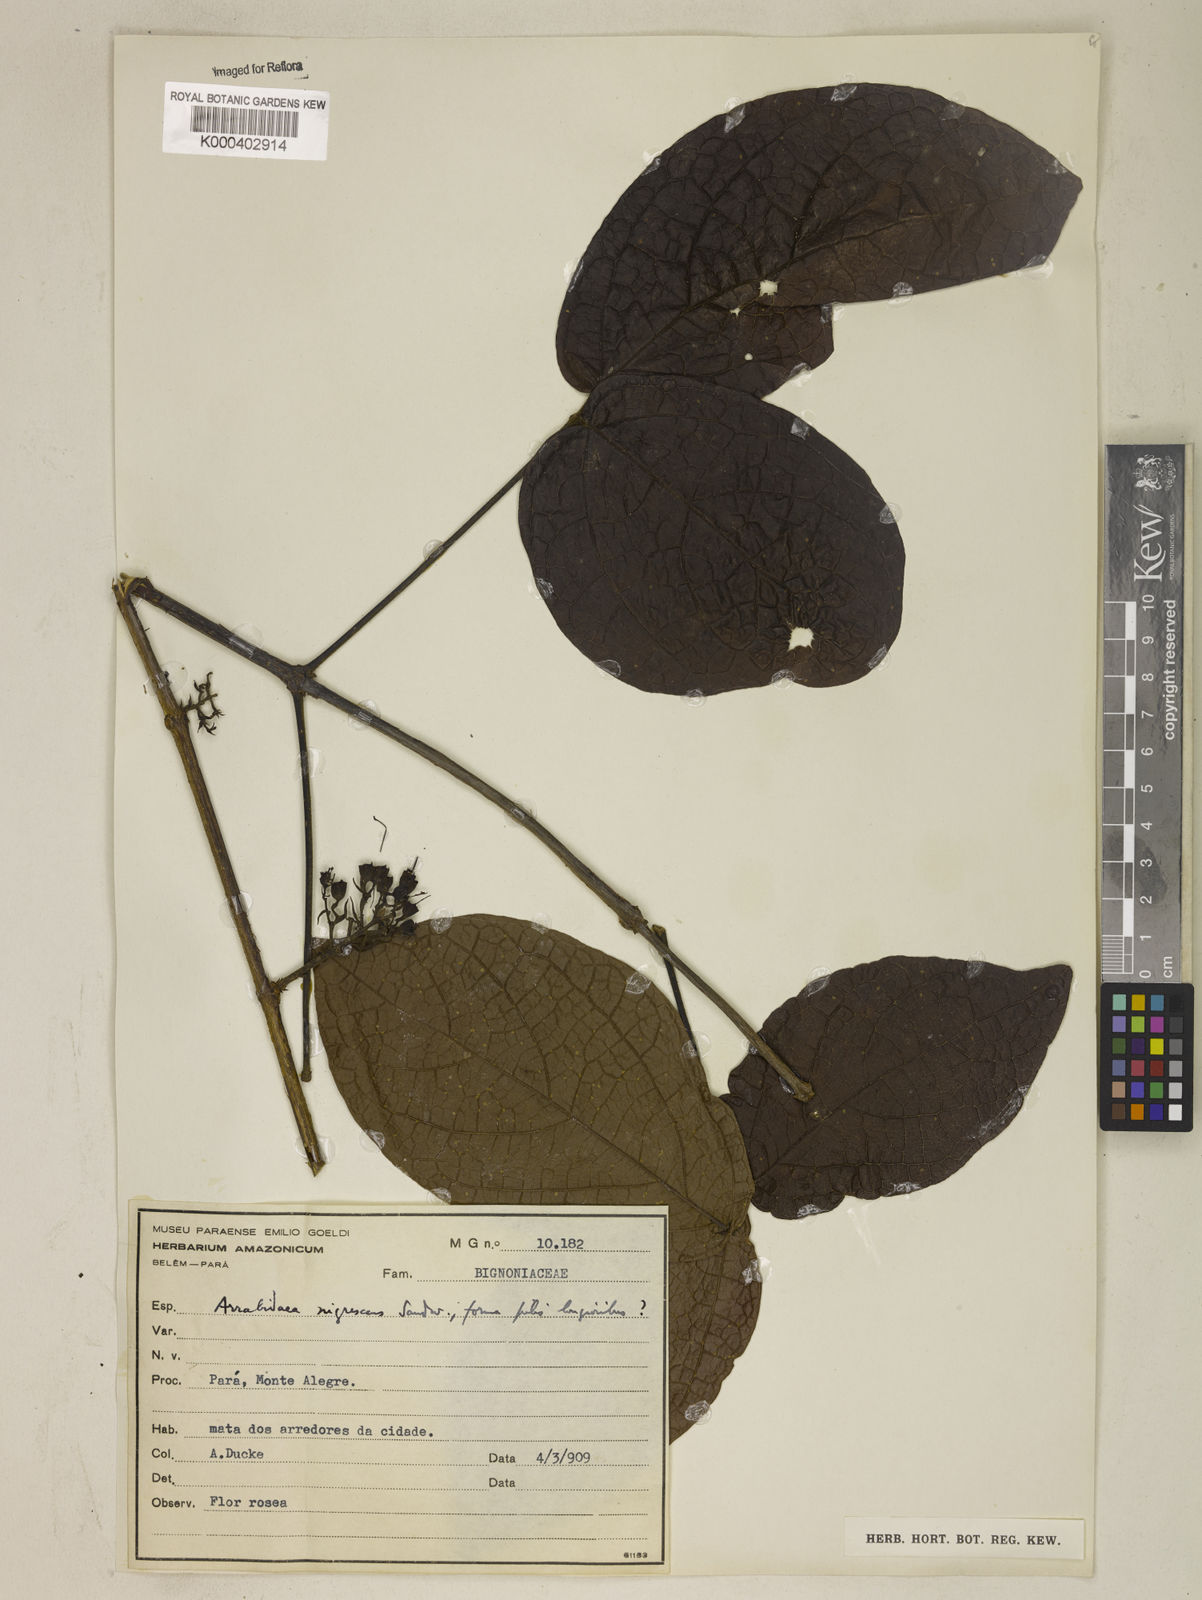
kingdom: Plantae
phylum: Tracheophyta
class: Magnoliopsida
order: Lamiales
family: Bignoniaceae
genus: Fridericia
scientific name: Fridericia nigrescens
